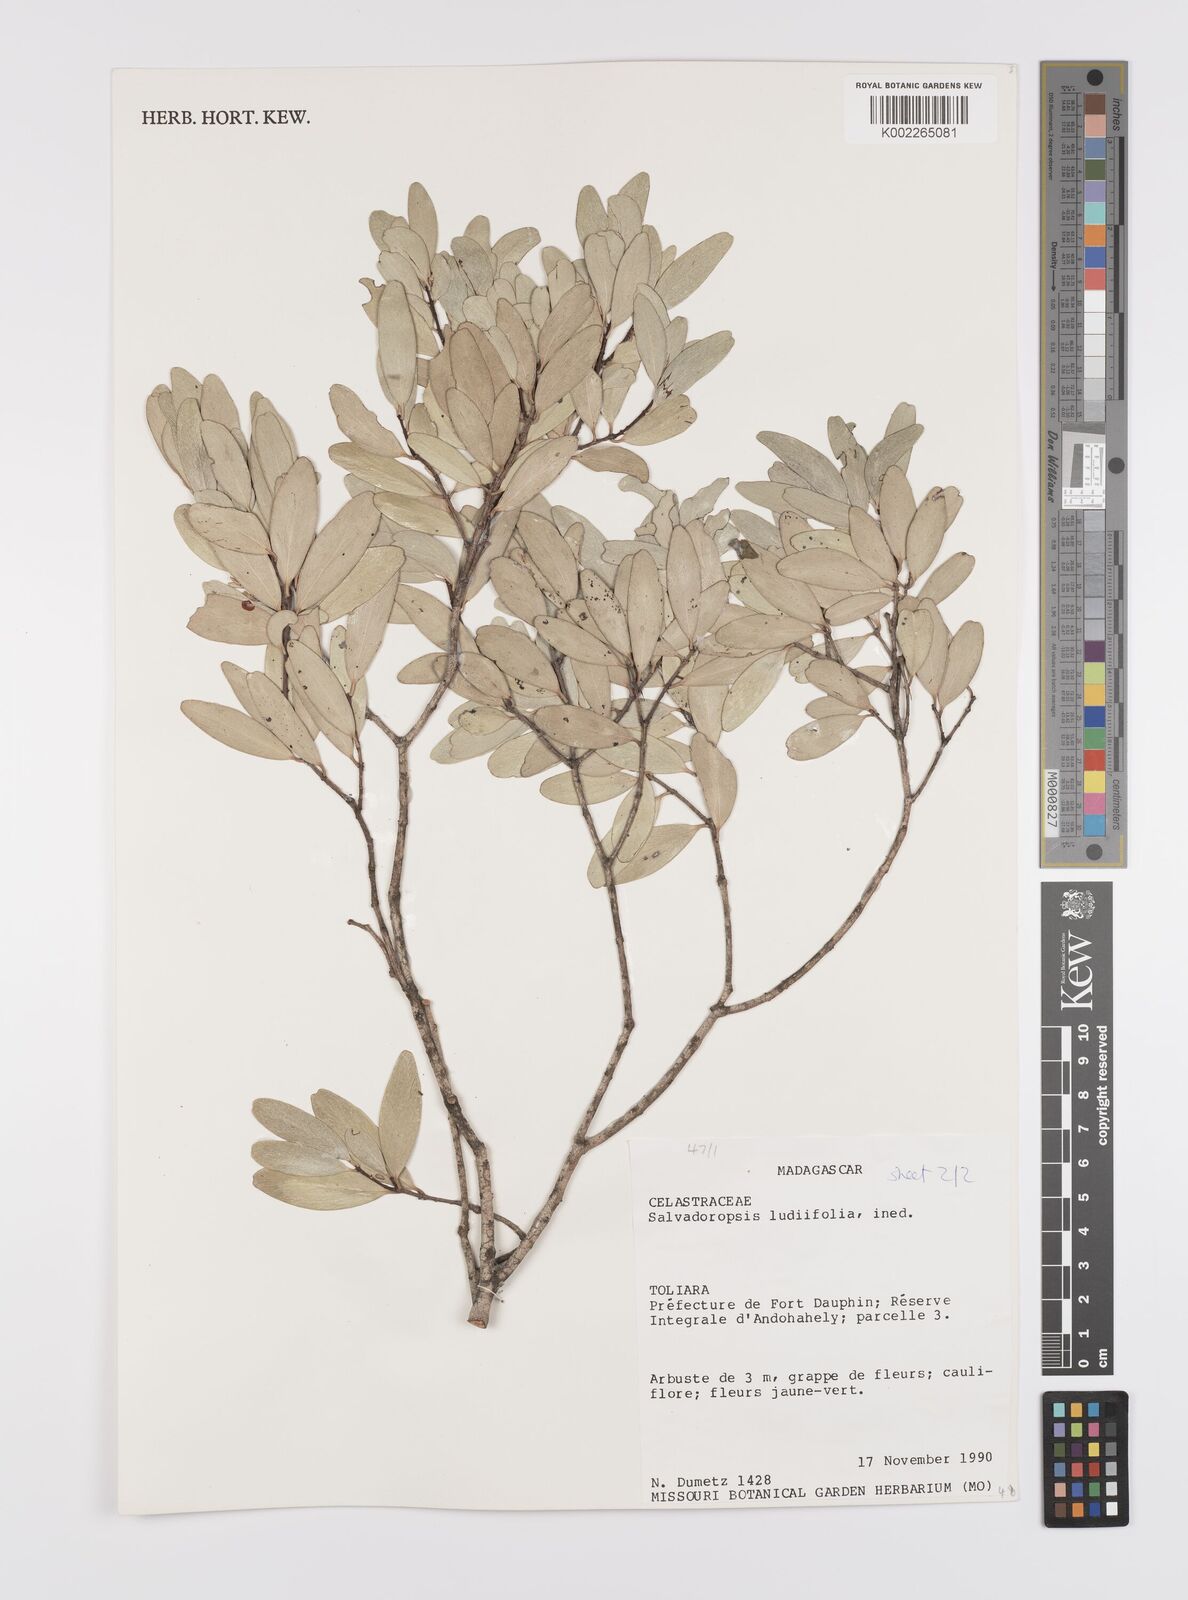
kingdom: Plantae
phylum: Tracheophyta
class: Magnoliopsida
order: Celastrales
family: Celastraceae
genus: Salvadoropsis
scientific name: Salvadoropsis
